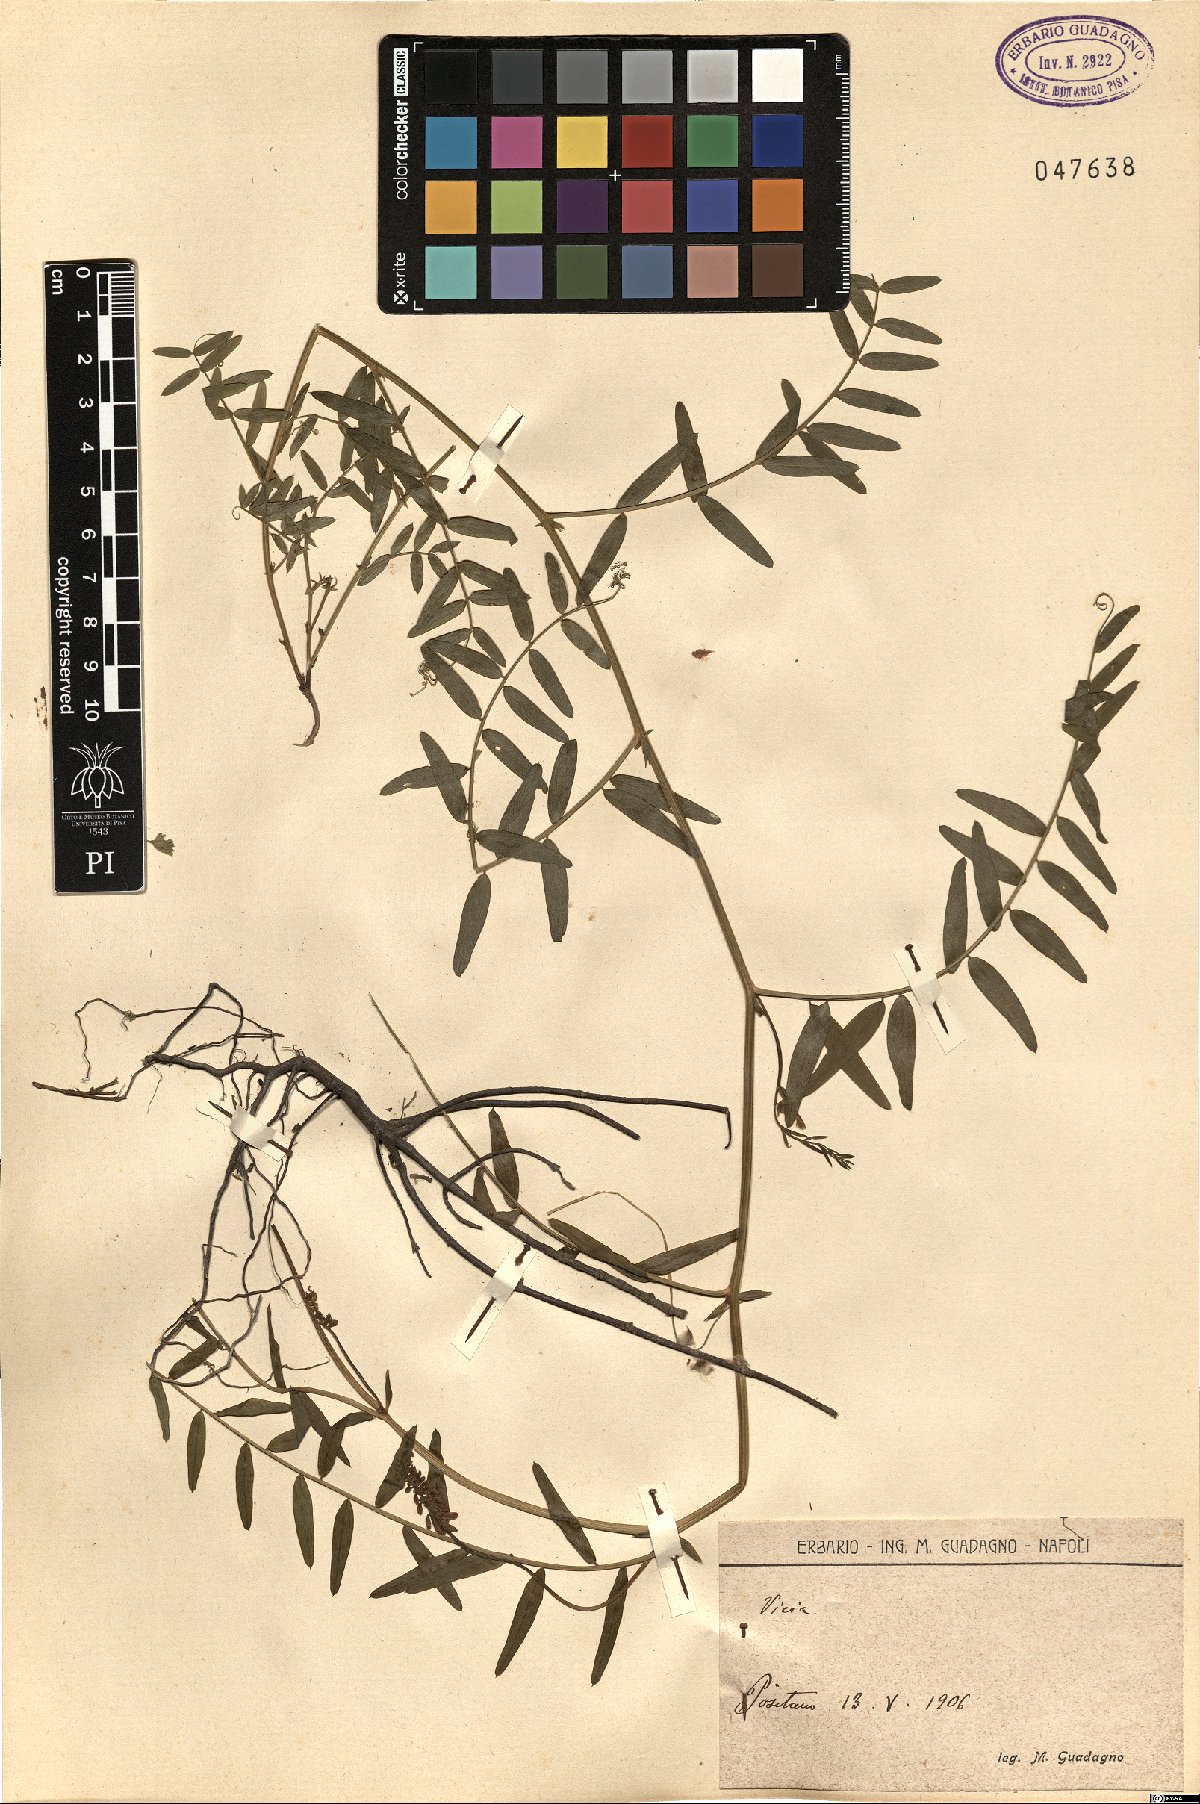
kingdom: Plantae
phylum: Tracheophyta
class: Magnoliopsida
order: Fabales
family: Fabaceae
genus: Vicia
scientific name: Vicia
